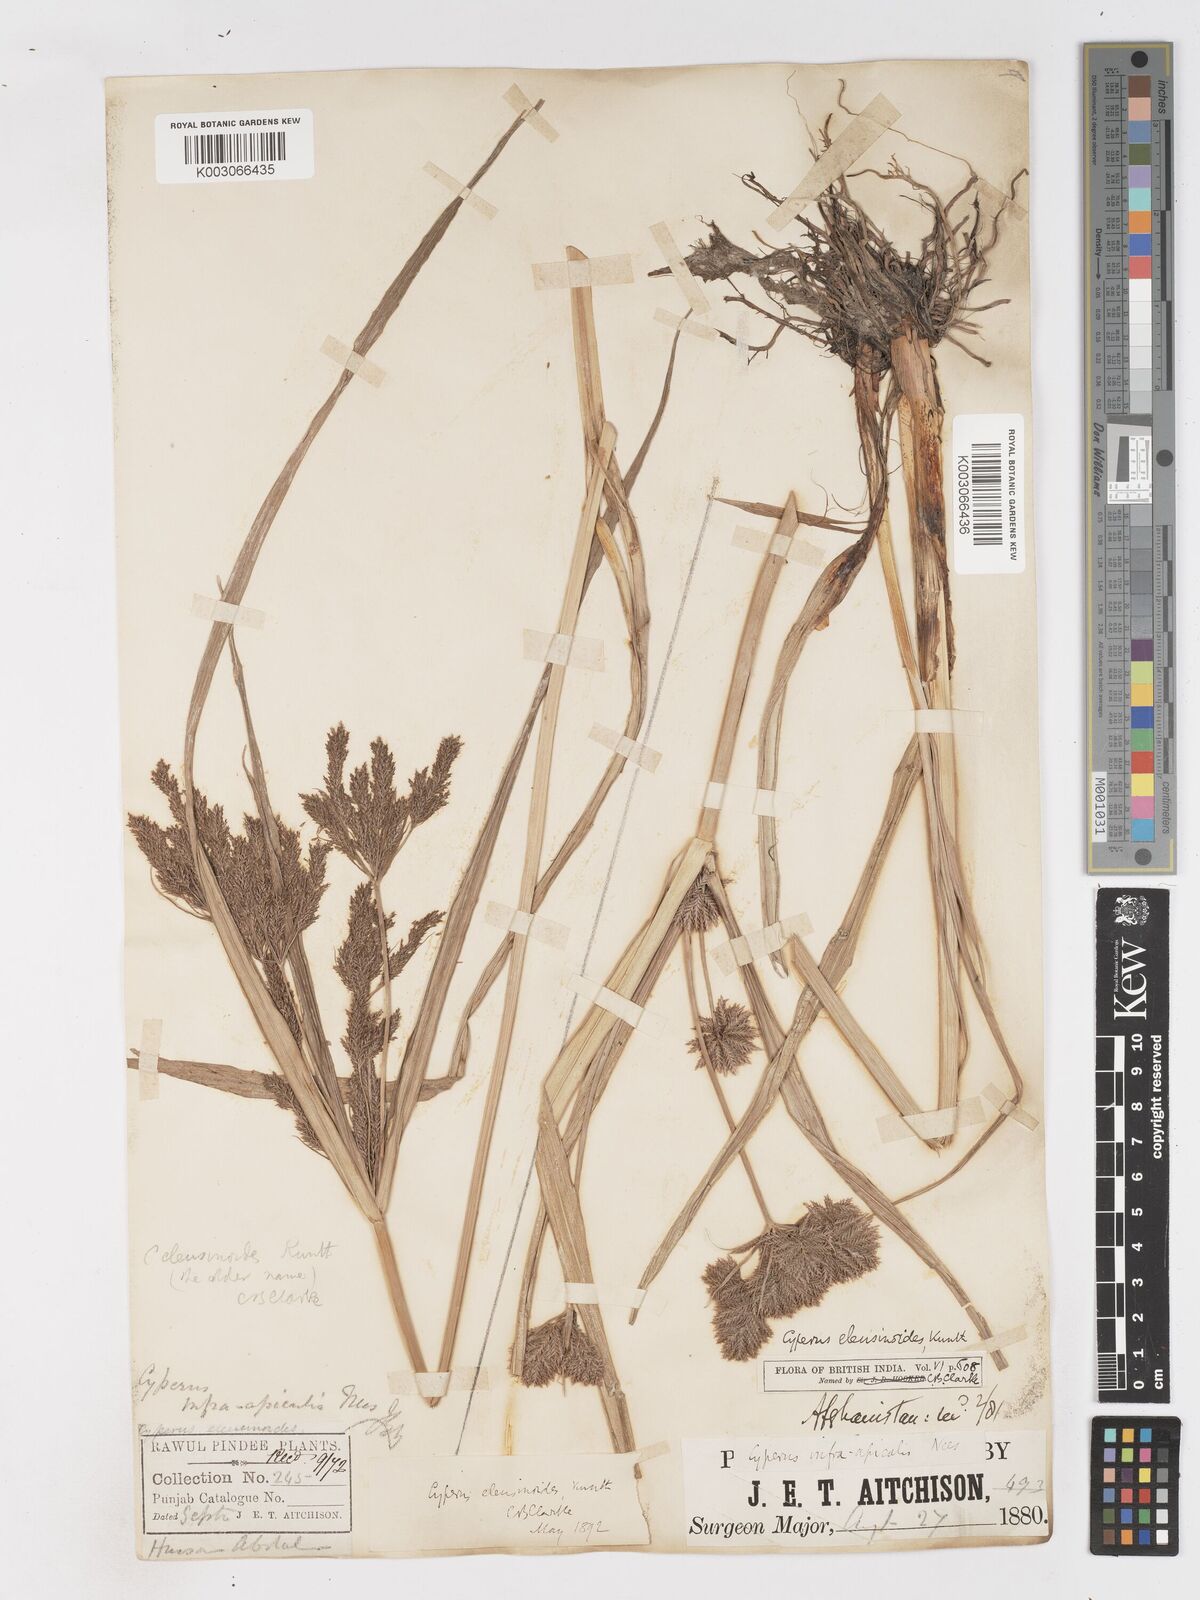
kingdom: Plantae
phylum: Tracheophyta
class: Liliopsida
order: Poales
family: Cyperaceae
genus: Cyperus
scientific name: Cyperus nutans
